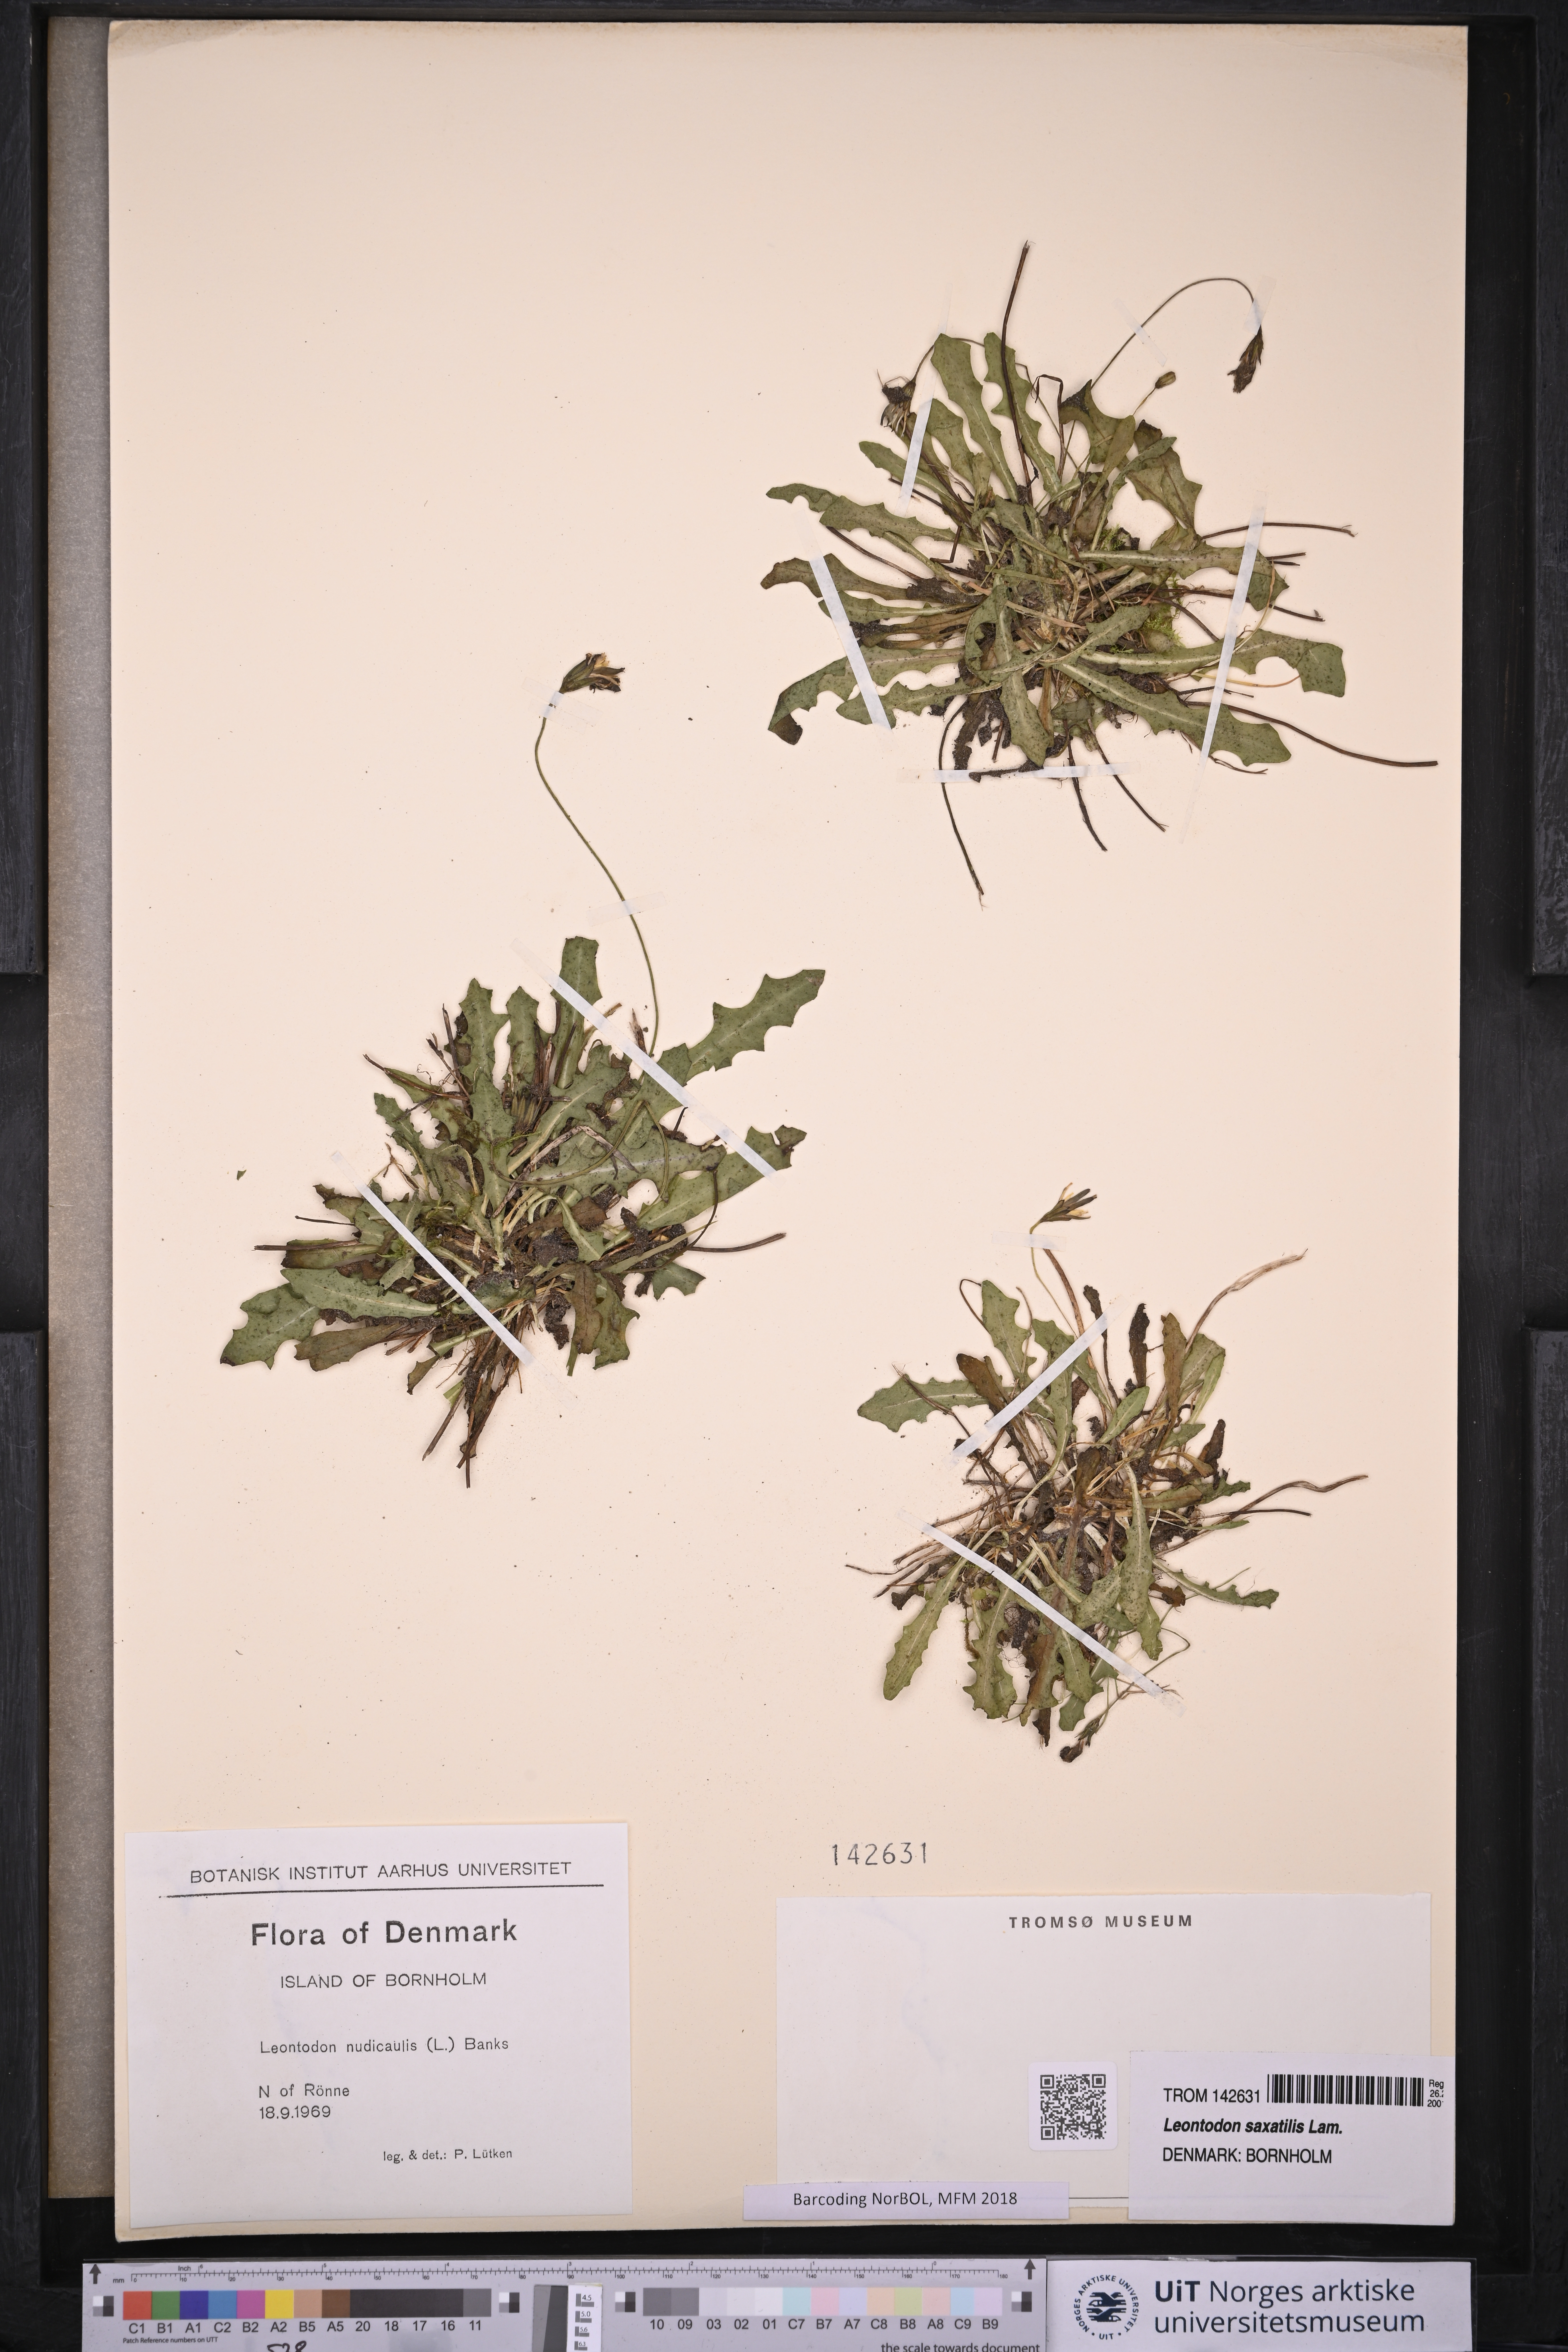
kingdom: Plantae
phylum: Tracheophyta
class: Magnoliopsida
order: Asterales
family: Asteraceae
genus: Thrincia
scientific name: Thrincia saxatilis
